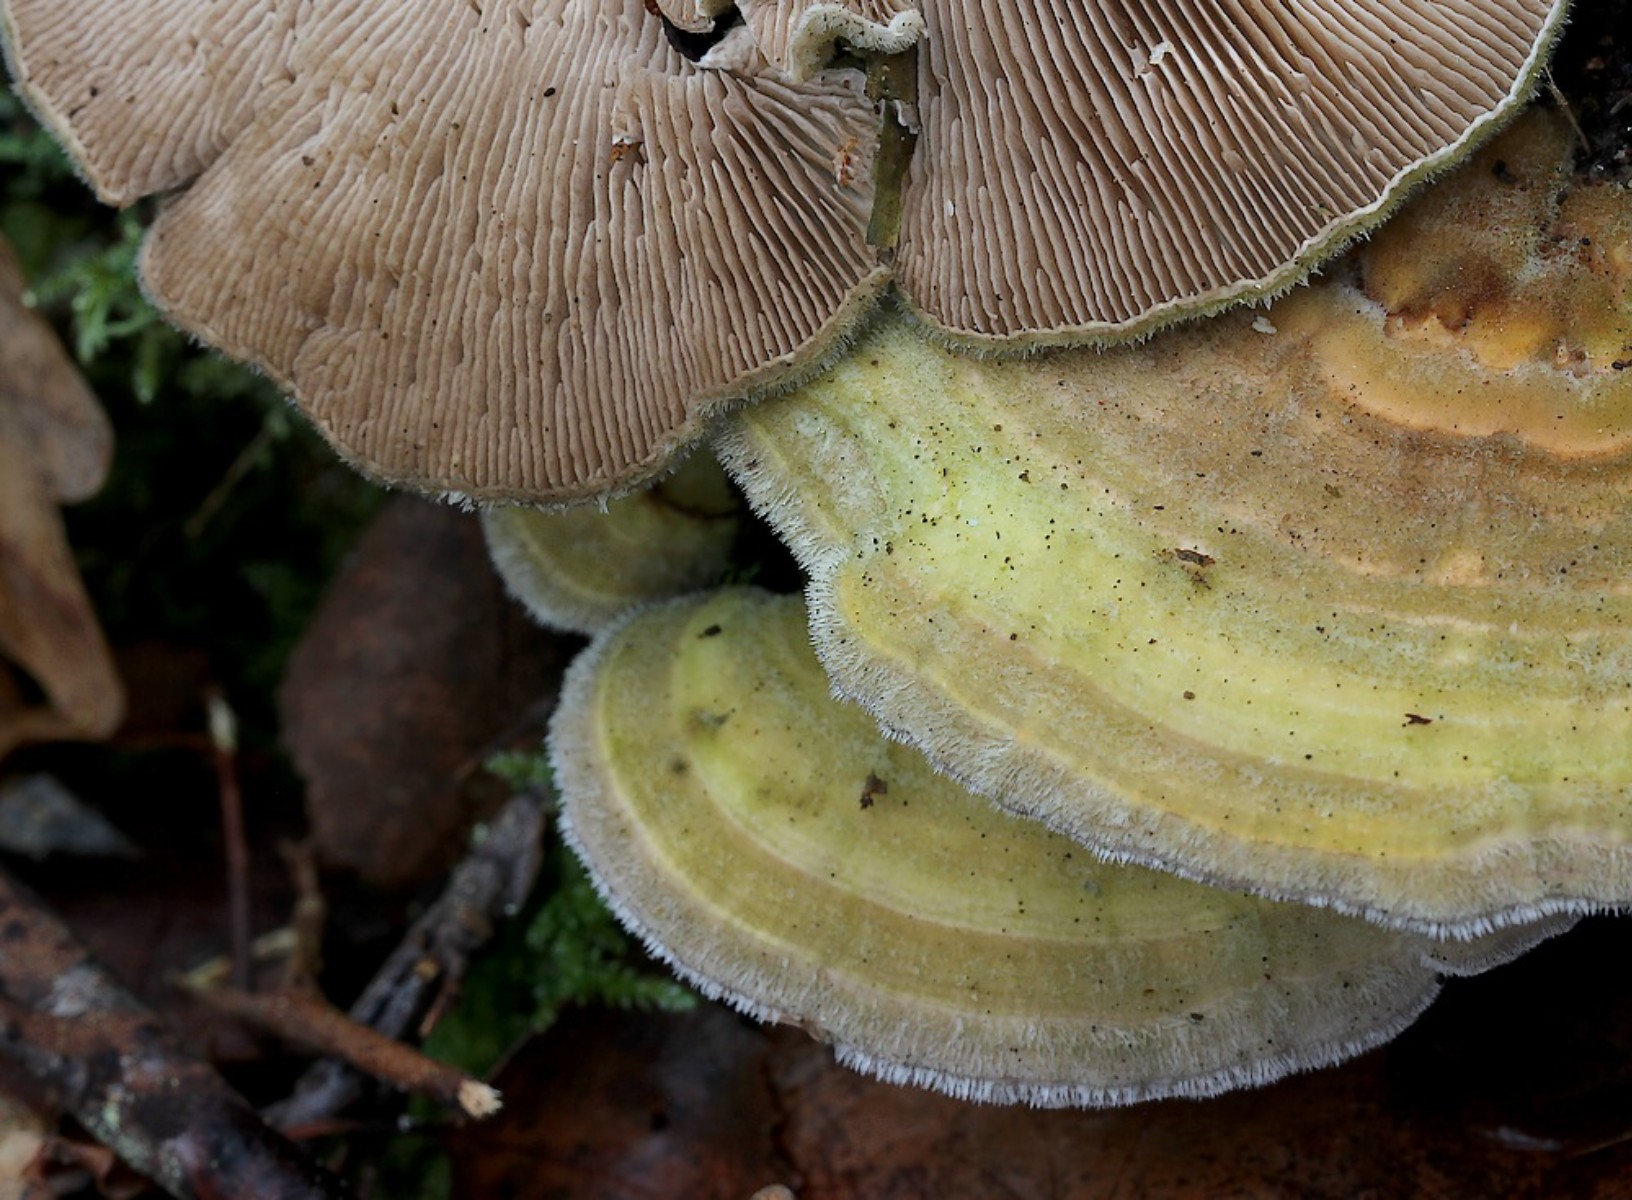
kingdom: Fungi
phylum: Basidiomycota
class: Agaricomycetes
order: Polyporales
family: Polyporaceae
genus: Lenzites
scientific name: Lenzites betulinus
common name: birke-læderporesvamp
